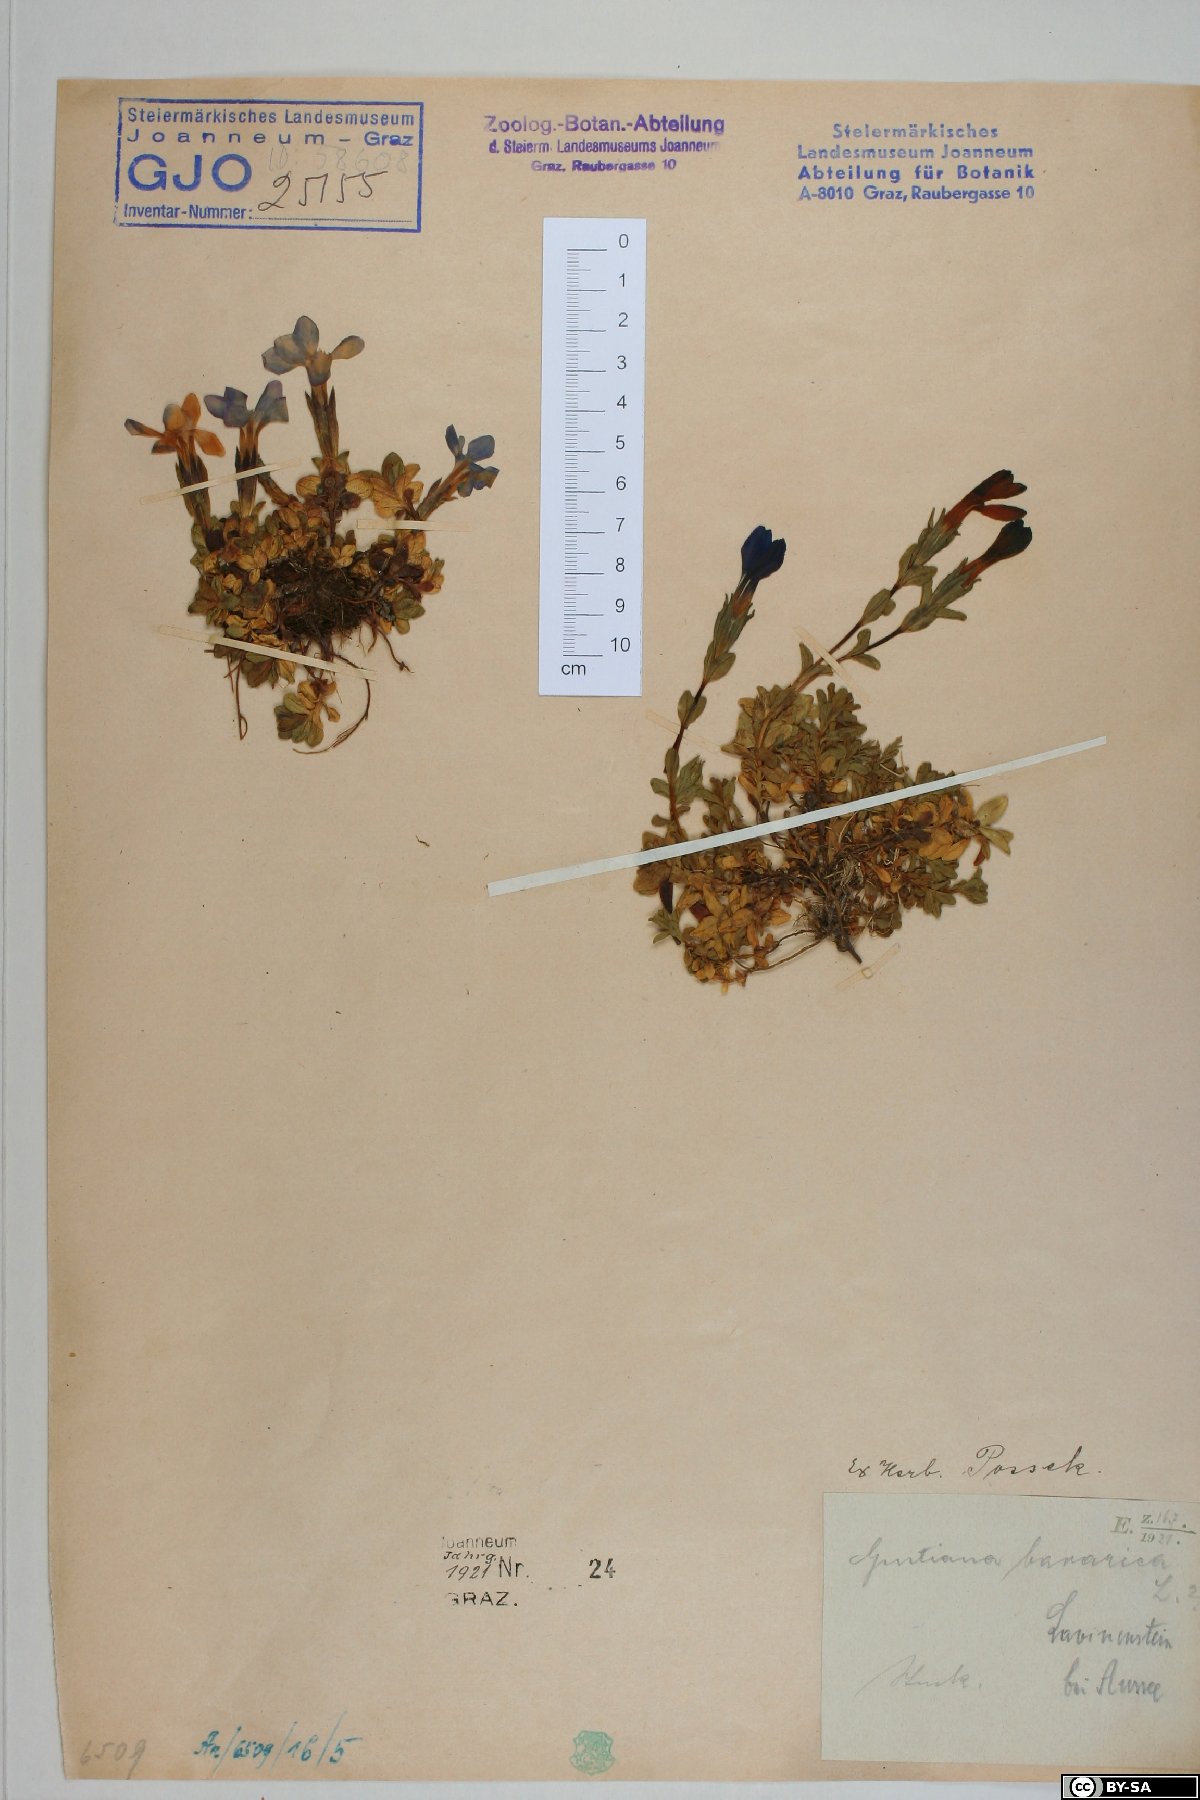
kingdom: Plantae
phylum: Tracheophyta
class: Magnoliopsida
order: Gentianales
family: Gentianaceae
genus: Gentiana
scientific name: Gentiana bavarica
